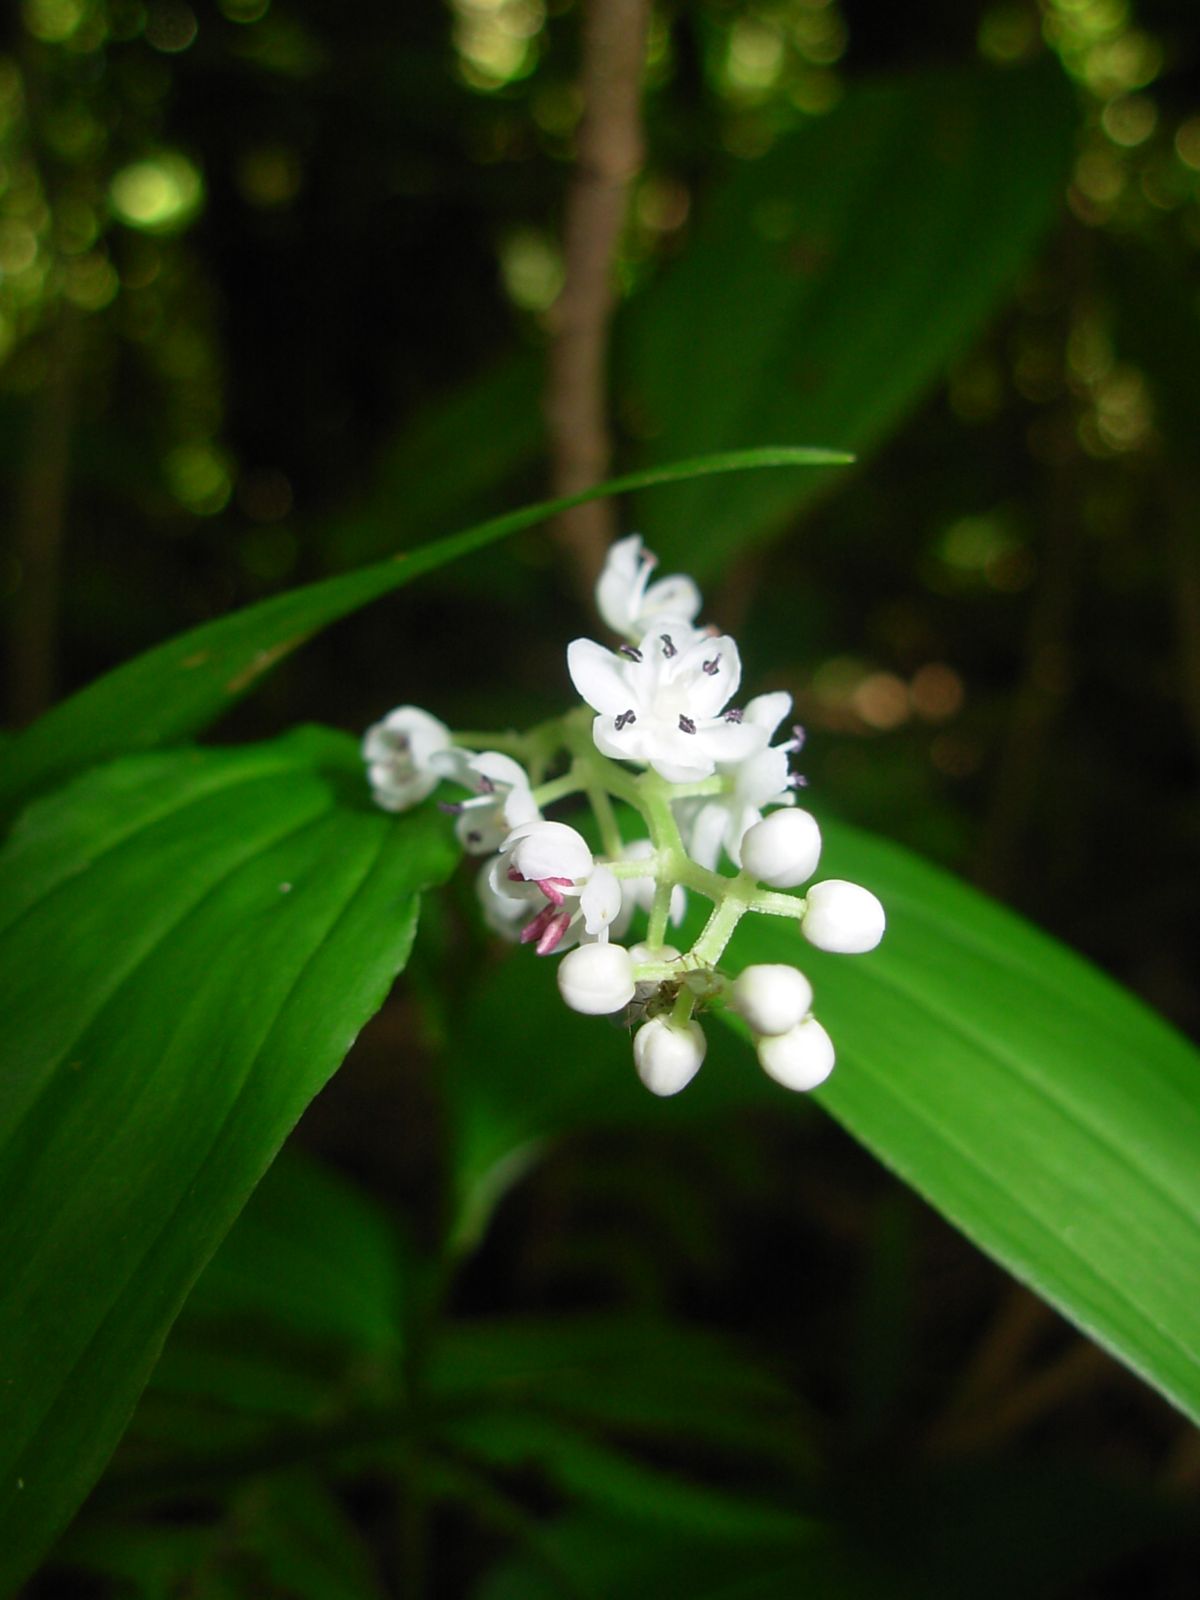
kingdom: Plantae
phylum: Tracheophyta
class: Liliopsida
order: Asparagales
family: Asparagaceae
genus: Maianthemum
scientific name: Maianthemum flexuosum
